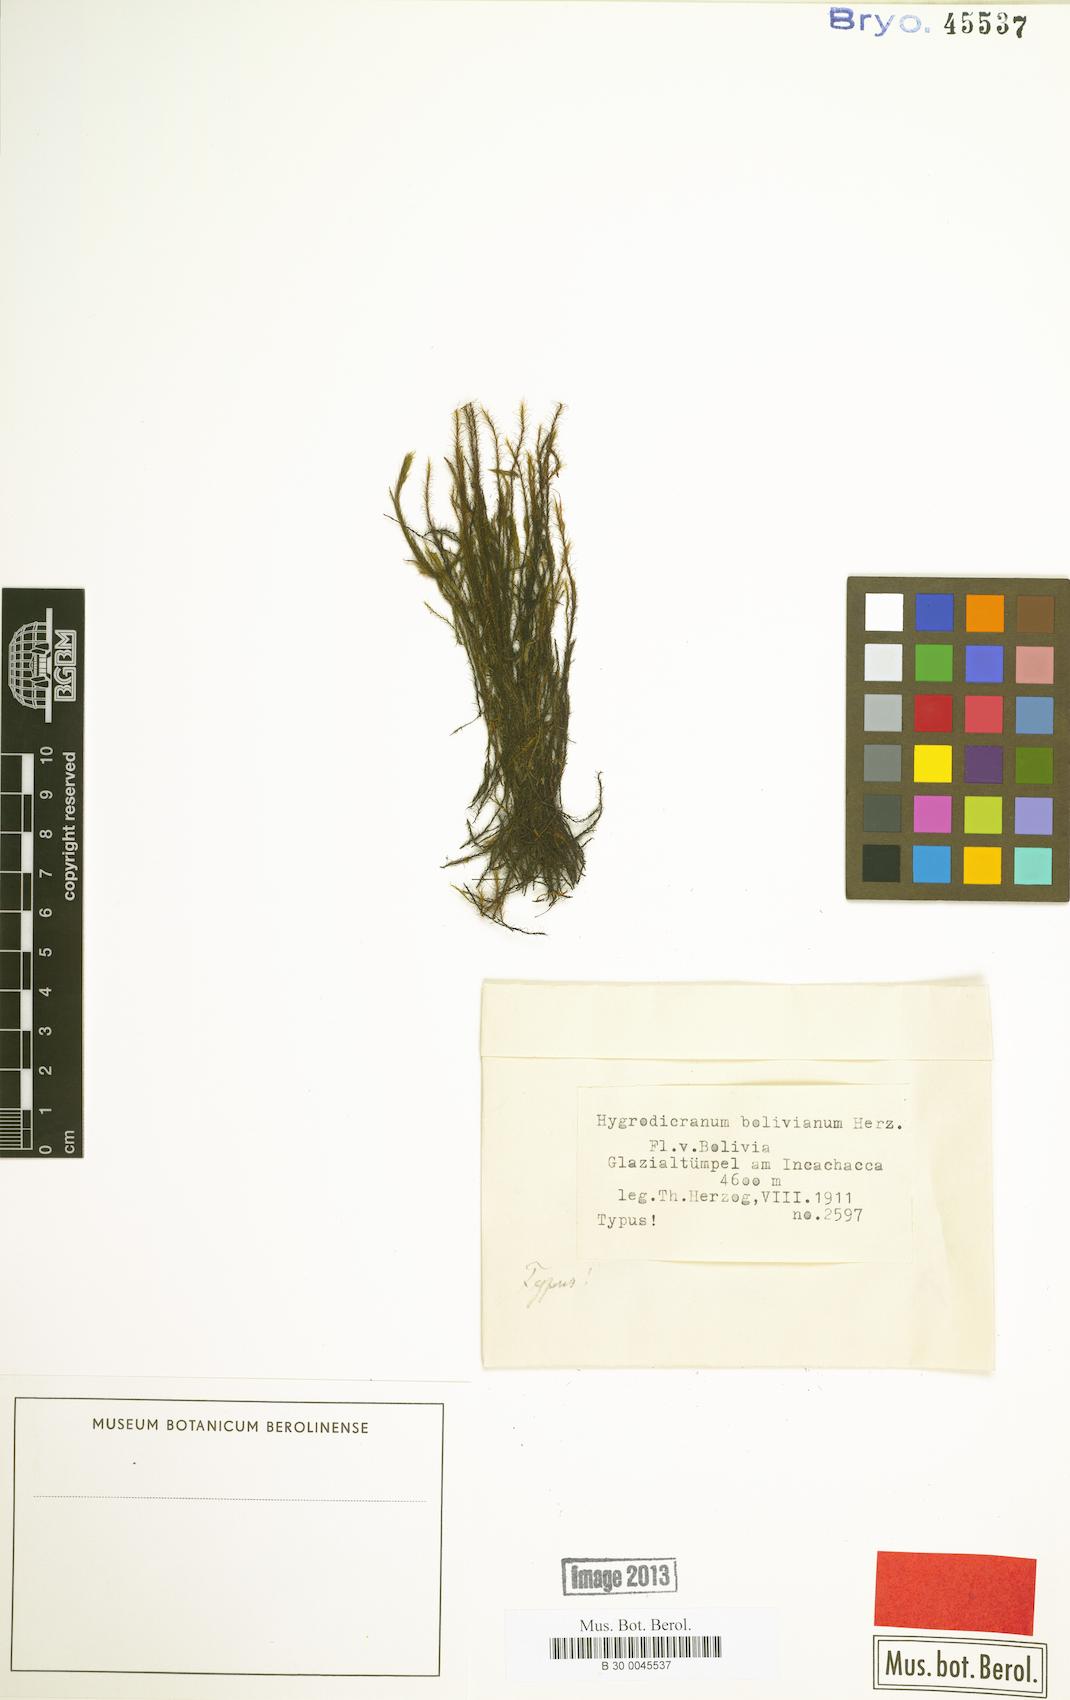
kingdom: Plantae
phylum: Bryophyta
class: Bryopsida
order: Dicranales
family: Aongstroemiaceae
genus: Hygrodicranum
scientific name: Hygrodicranum bolivianum
